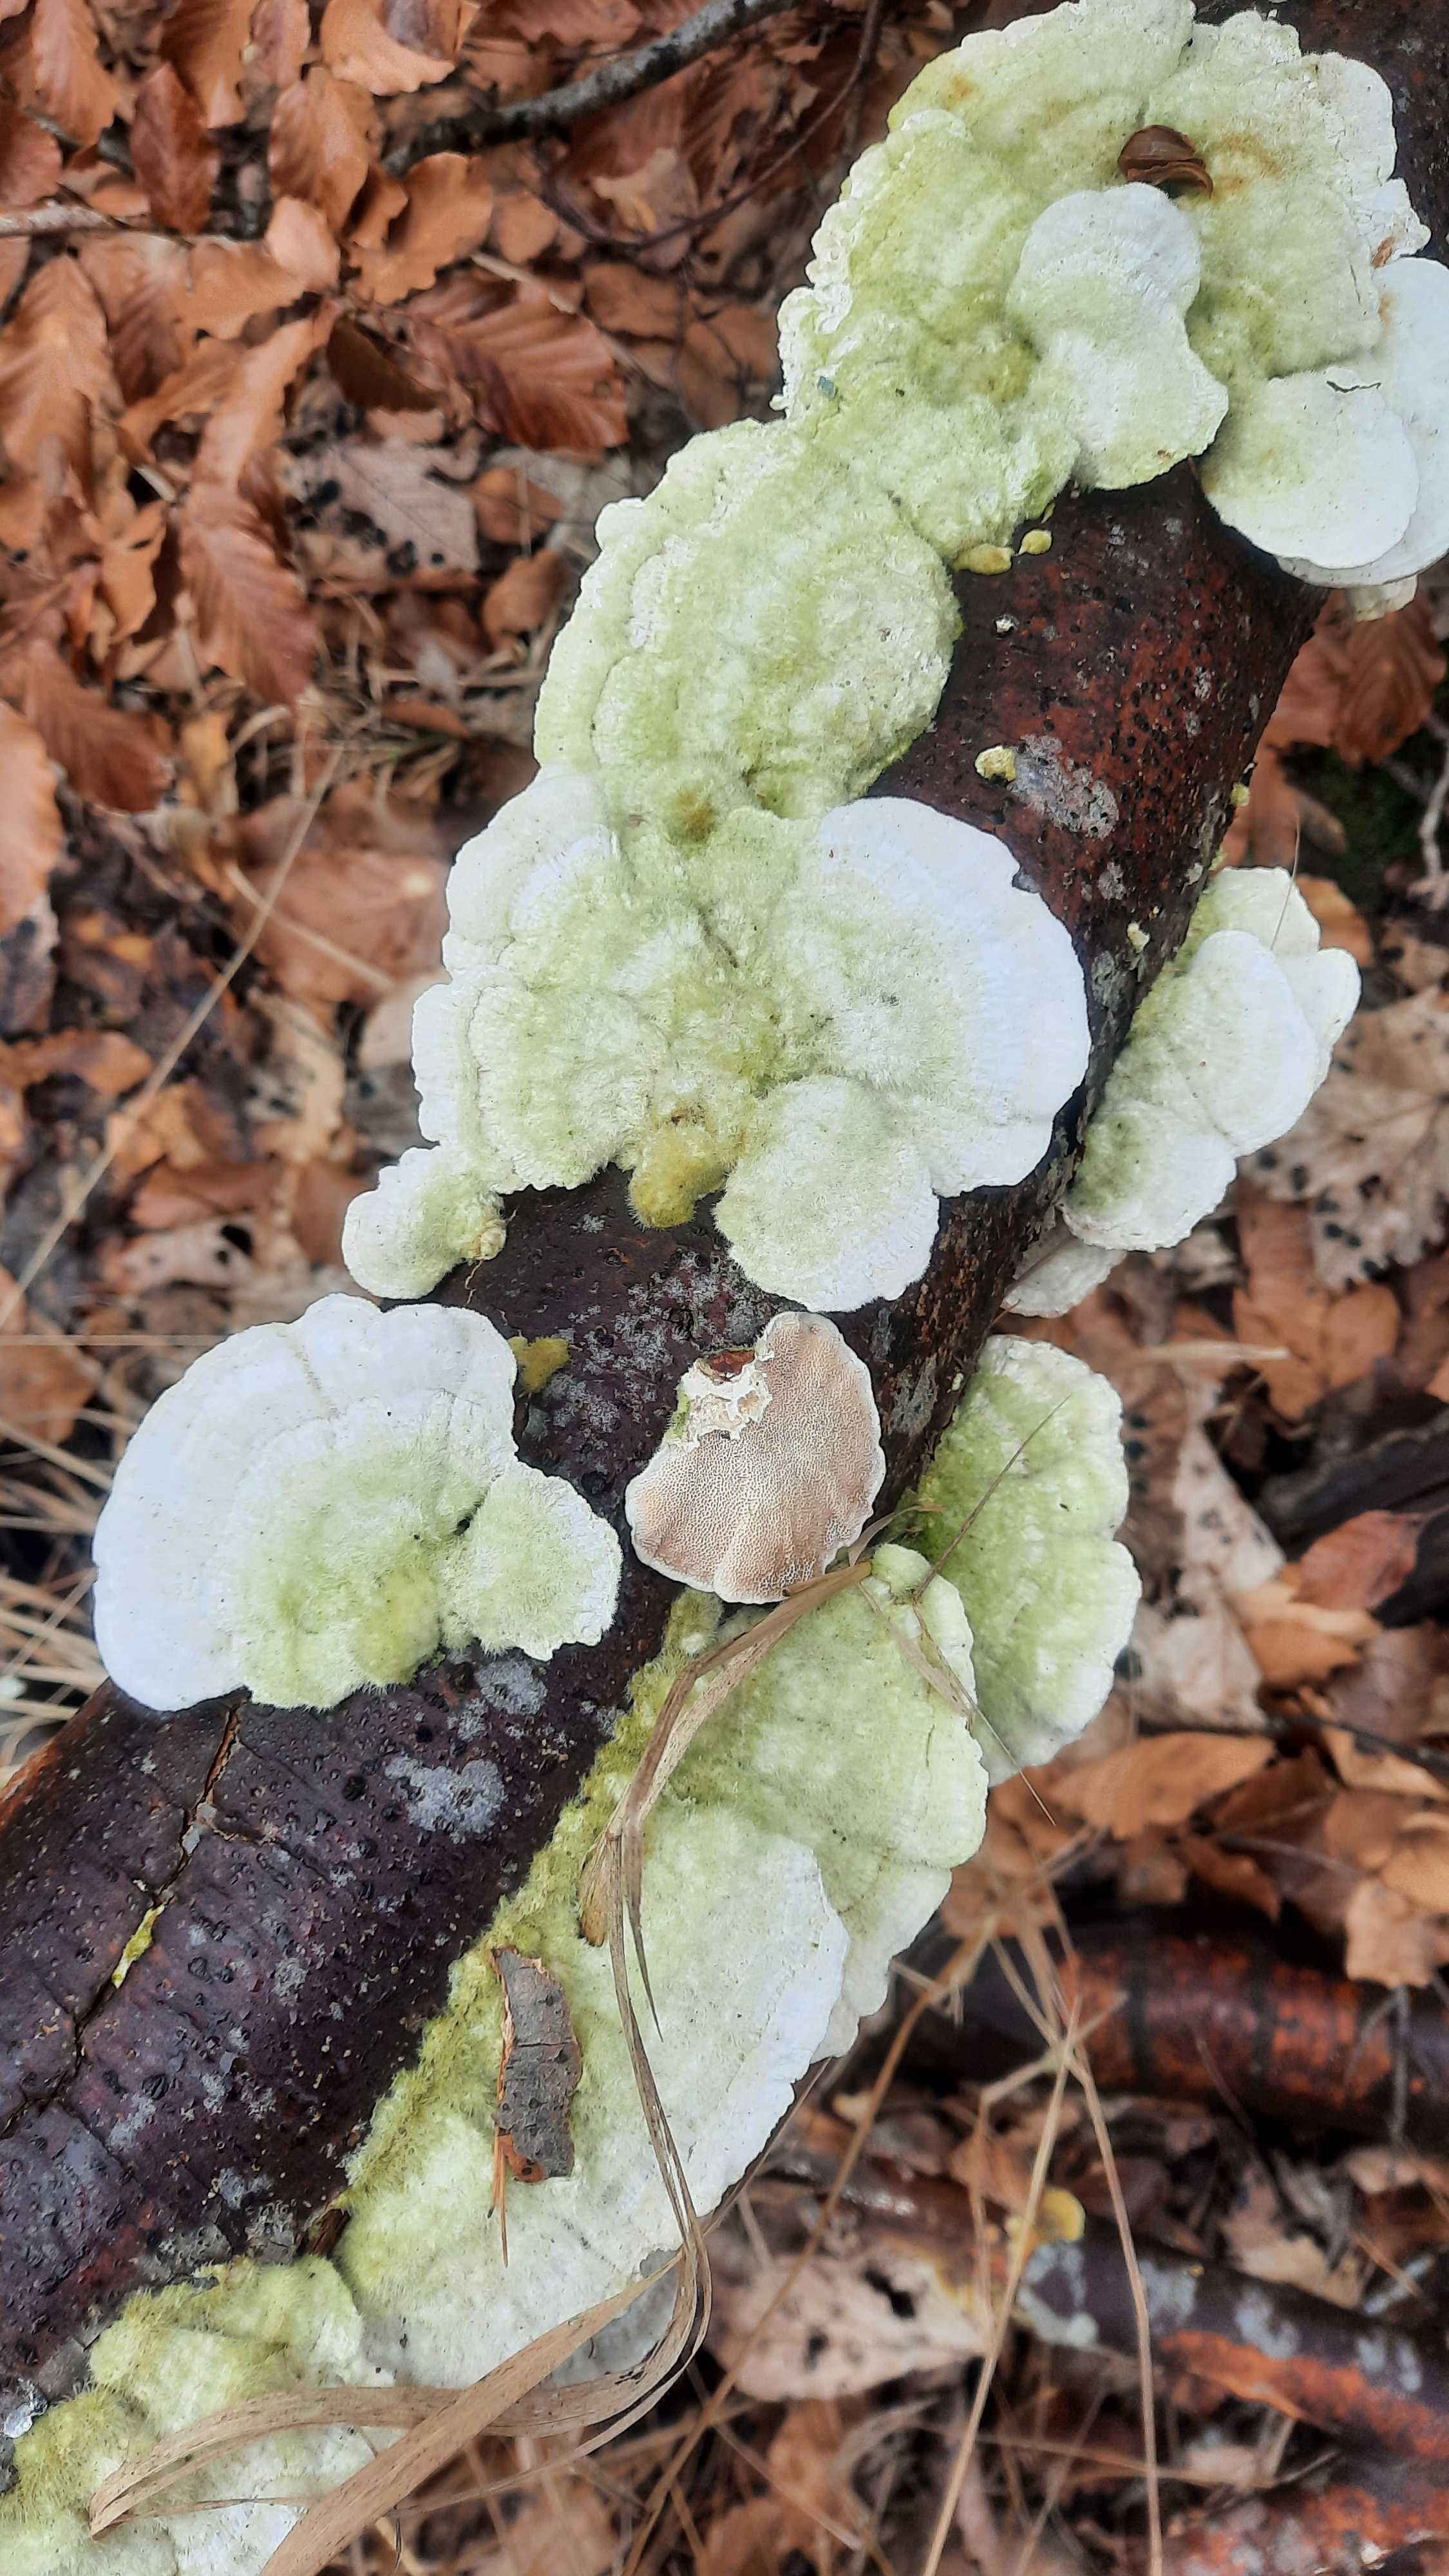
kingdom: Fungi
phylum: Basidiomycota
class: Agaricomycetes
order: Polyporales
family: Polyporaceae
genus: Trametes
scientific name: Trametes hirsuta
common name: håret læderporesvamp
